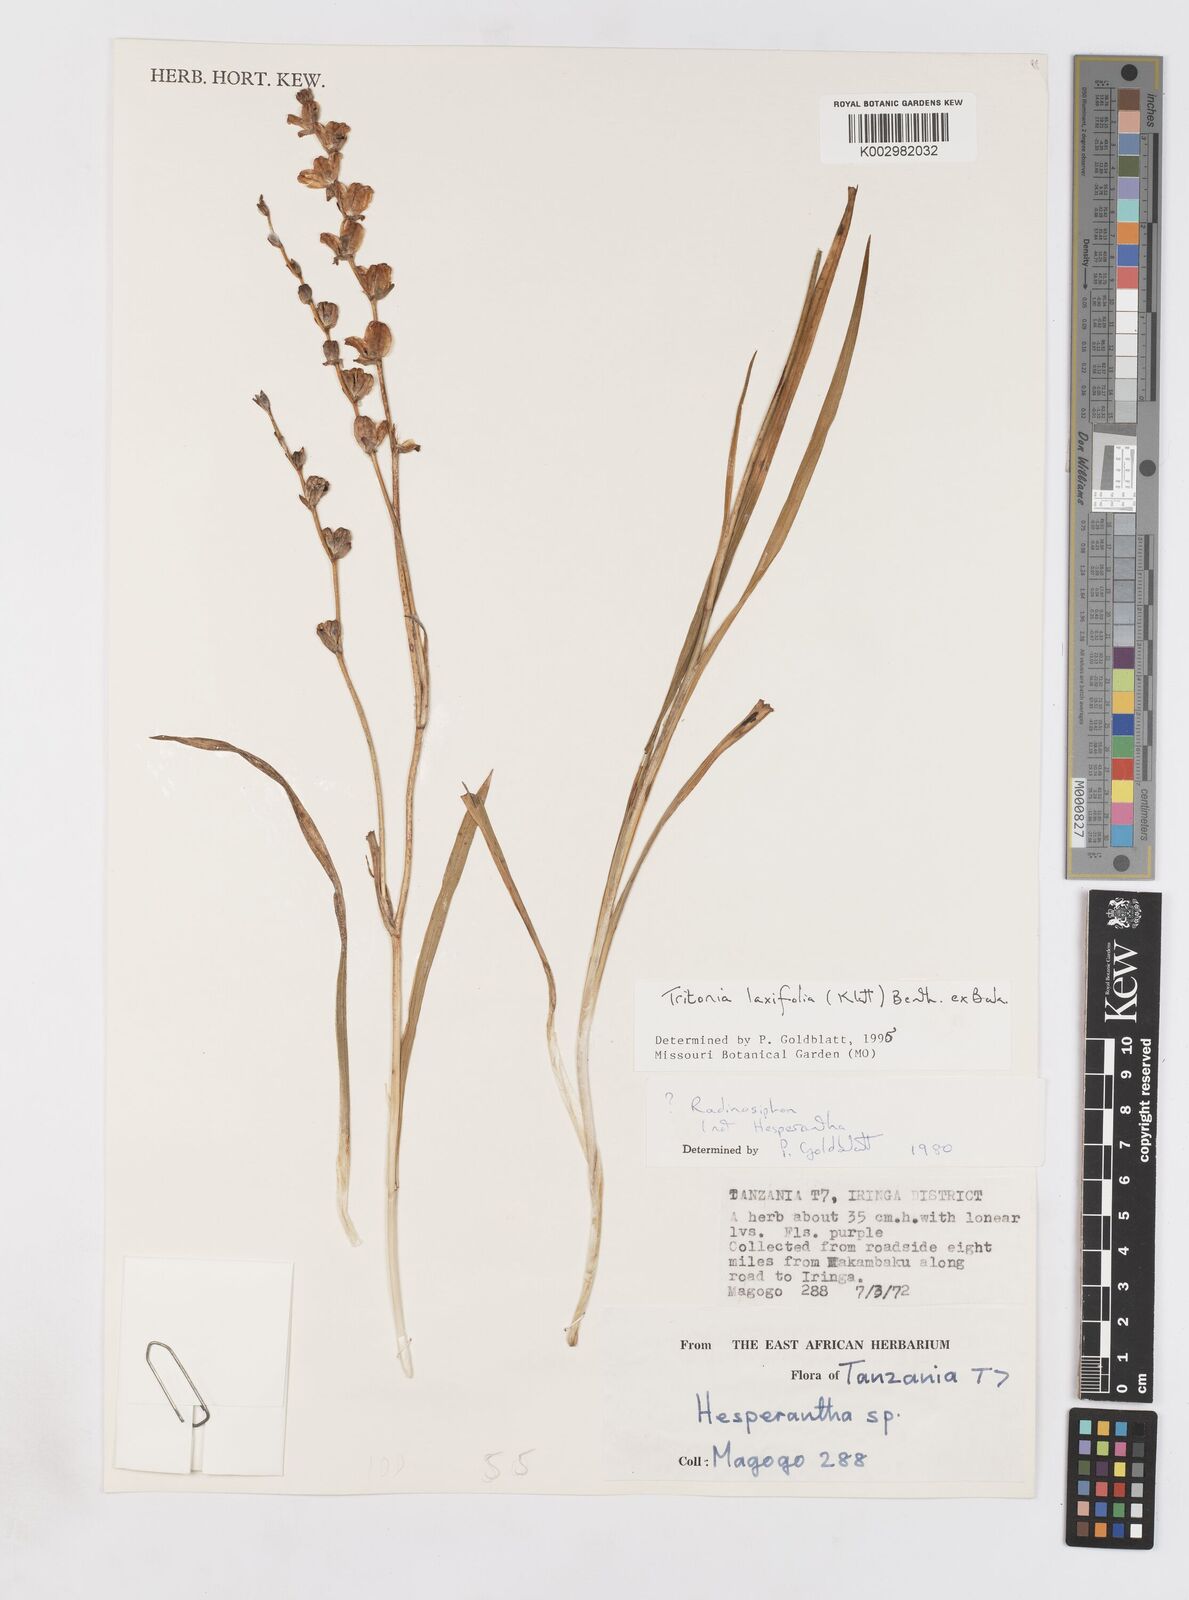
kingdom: Plantae
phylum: Tracheophyta
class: Liliopsida
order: Asparagales
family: Iridaceae
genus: Tritonia
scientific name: Tritonia laxifolia
